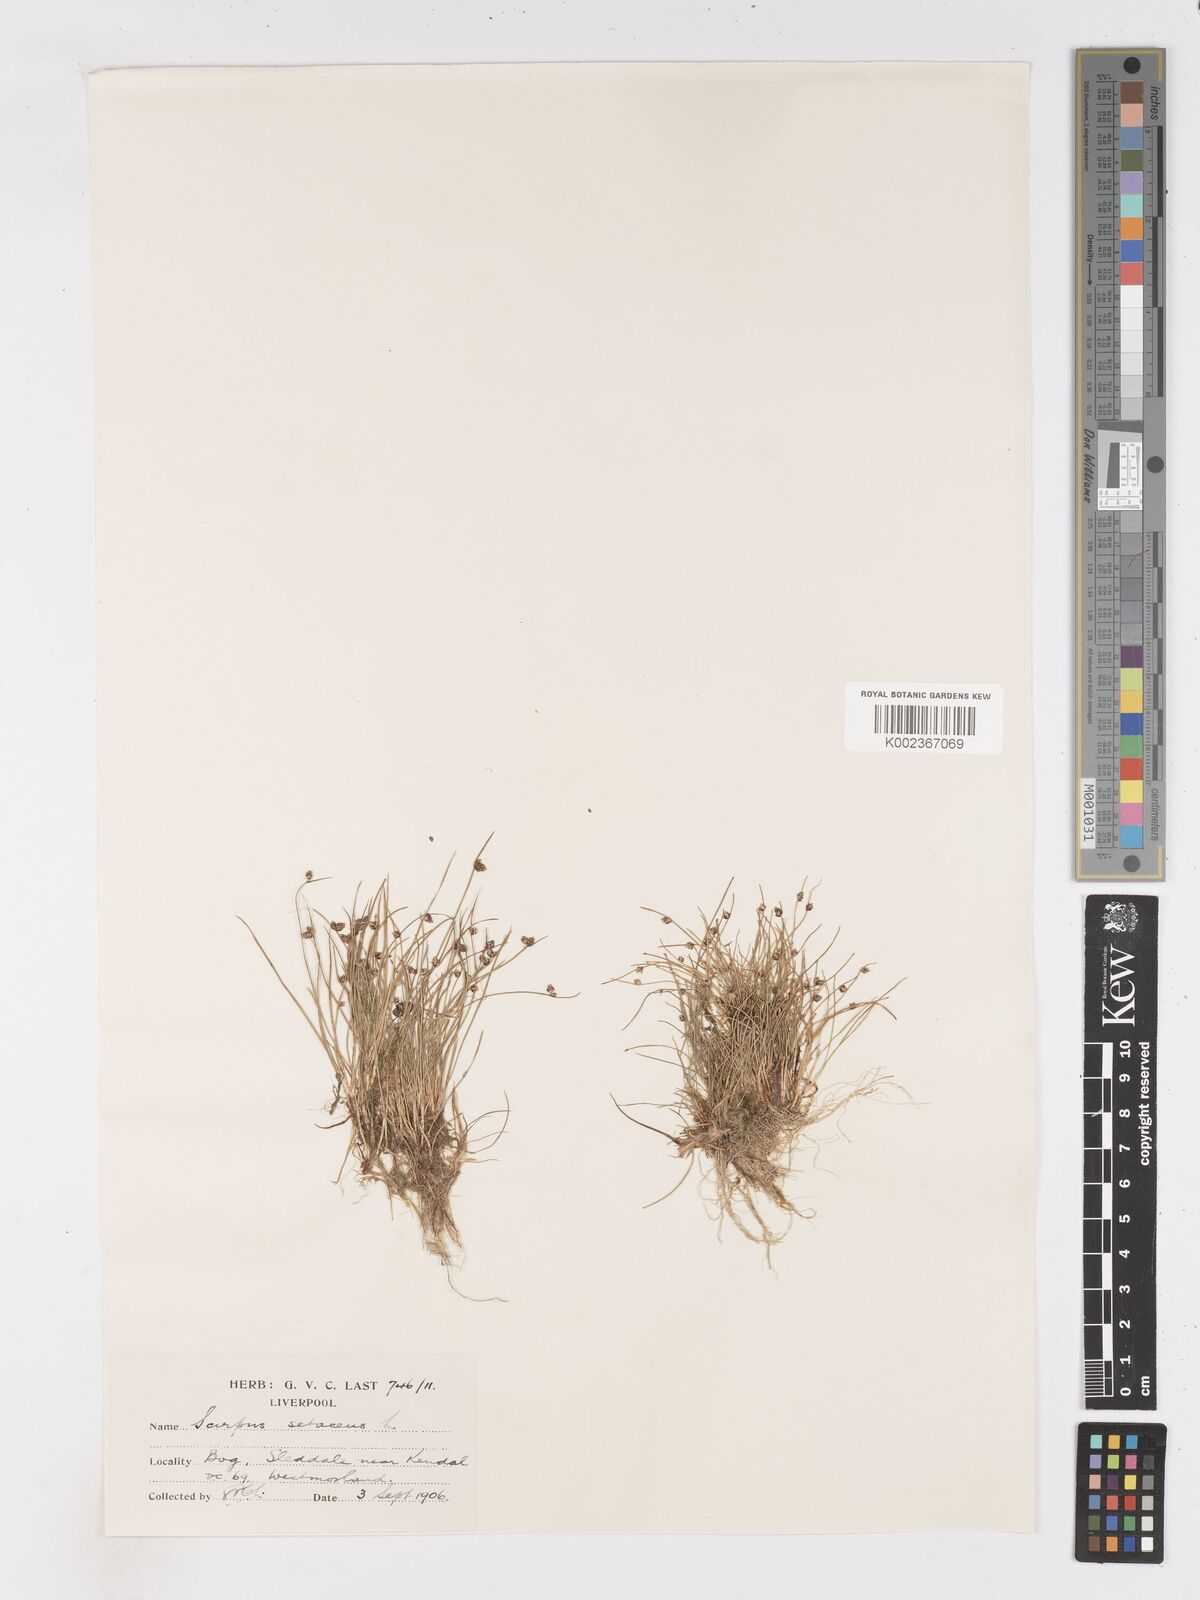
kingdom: Plantae
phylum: Tracheophyta
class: Liliopsida
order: Poales
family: Cyperaceae
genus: Isolepis
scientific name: Isolepis setacea
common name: Bristle club-rush
